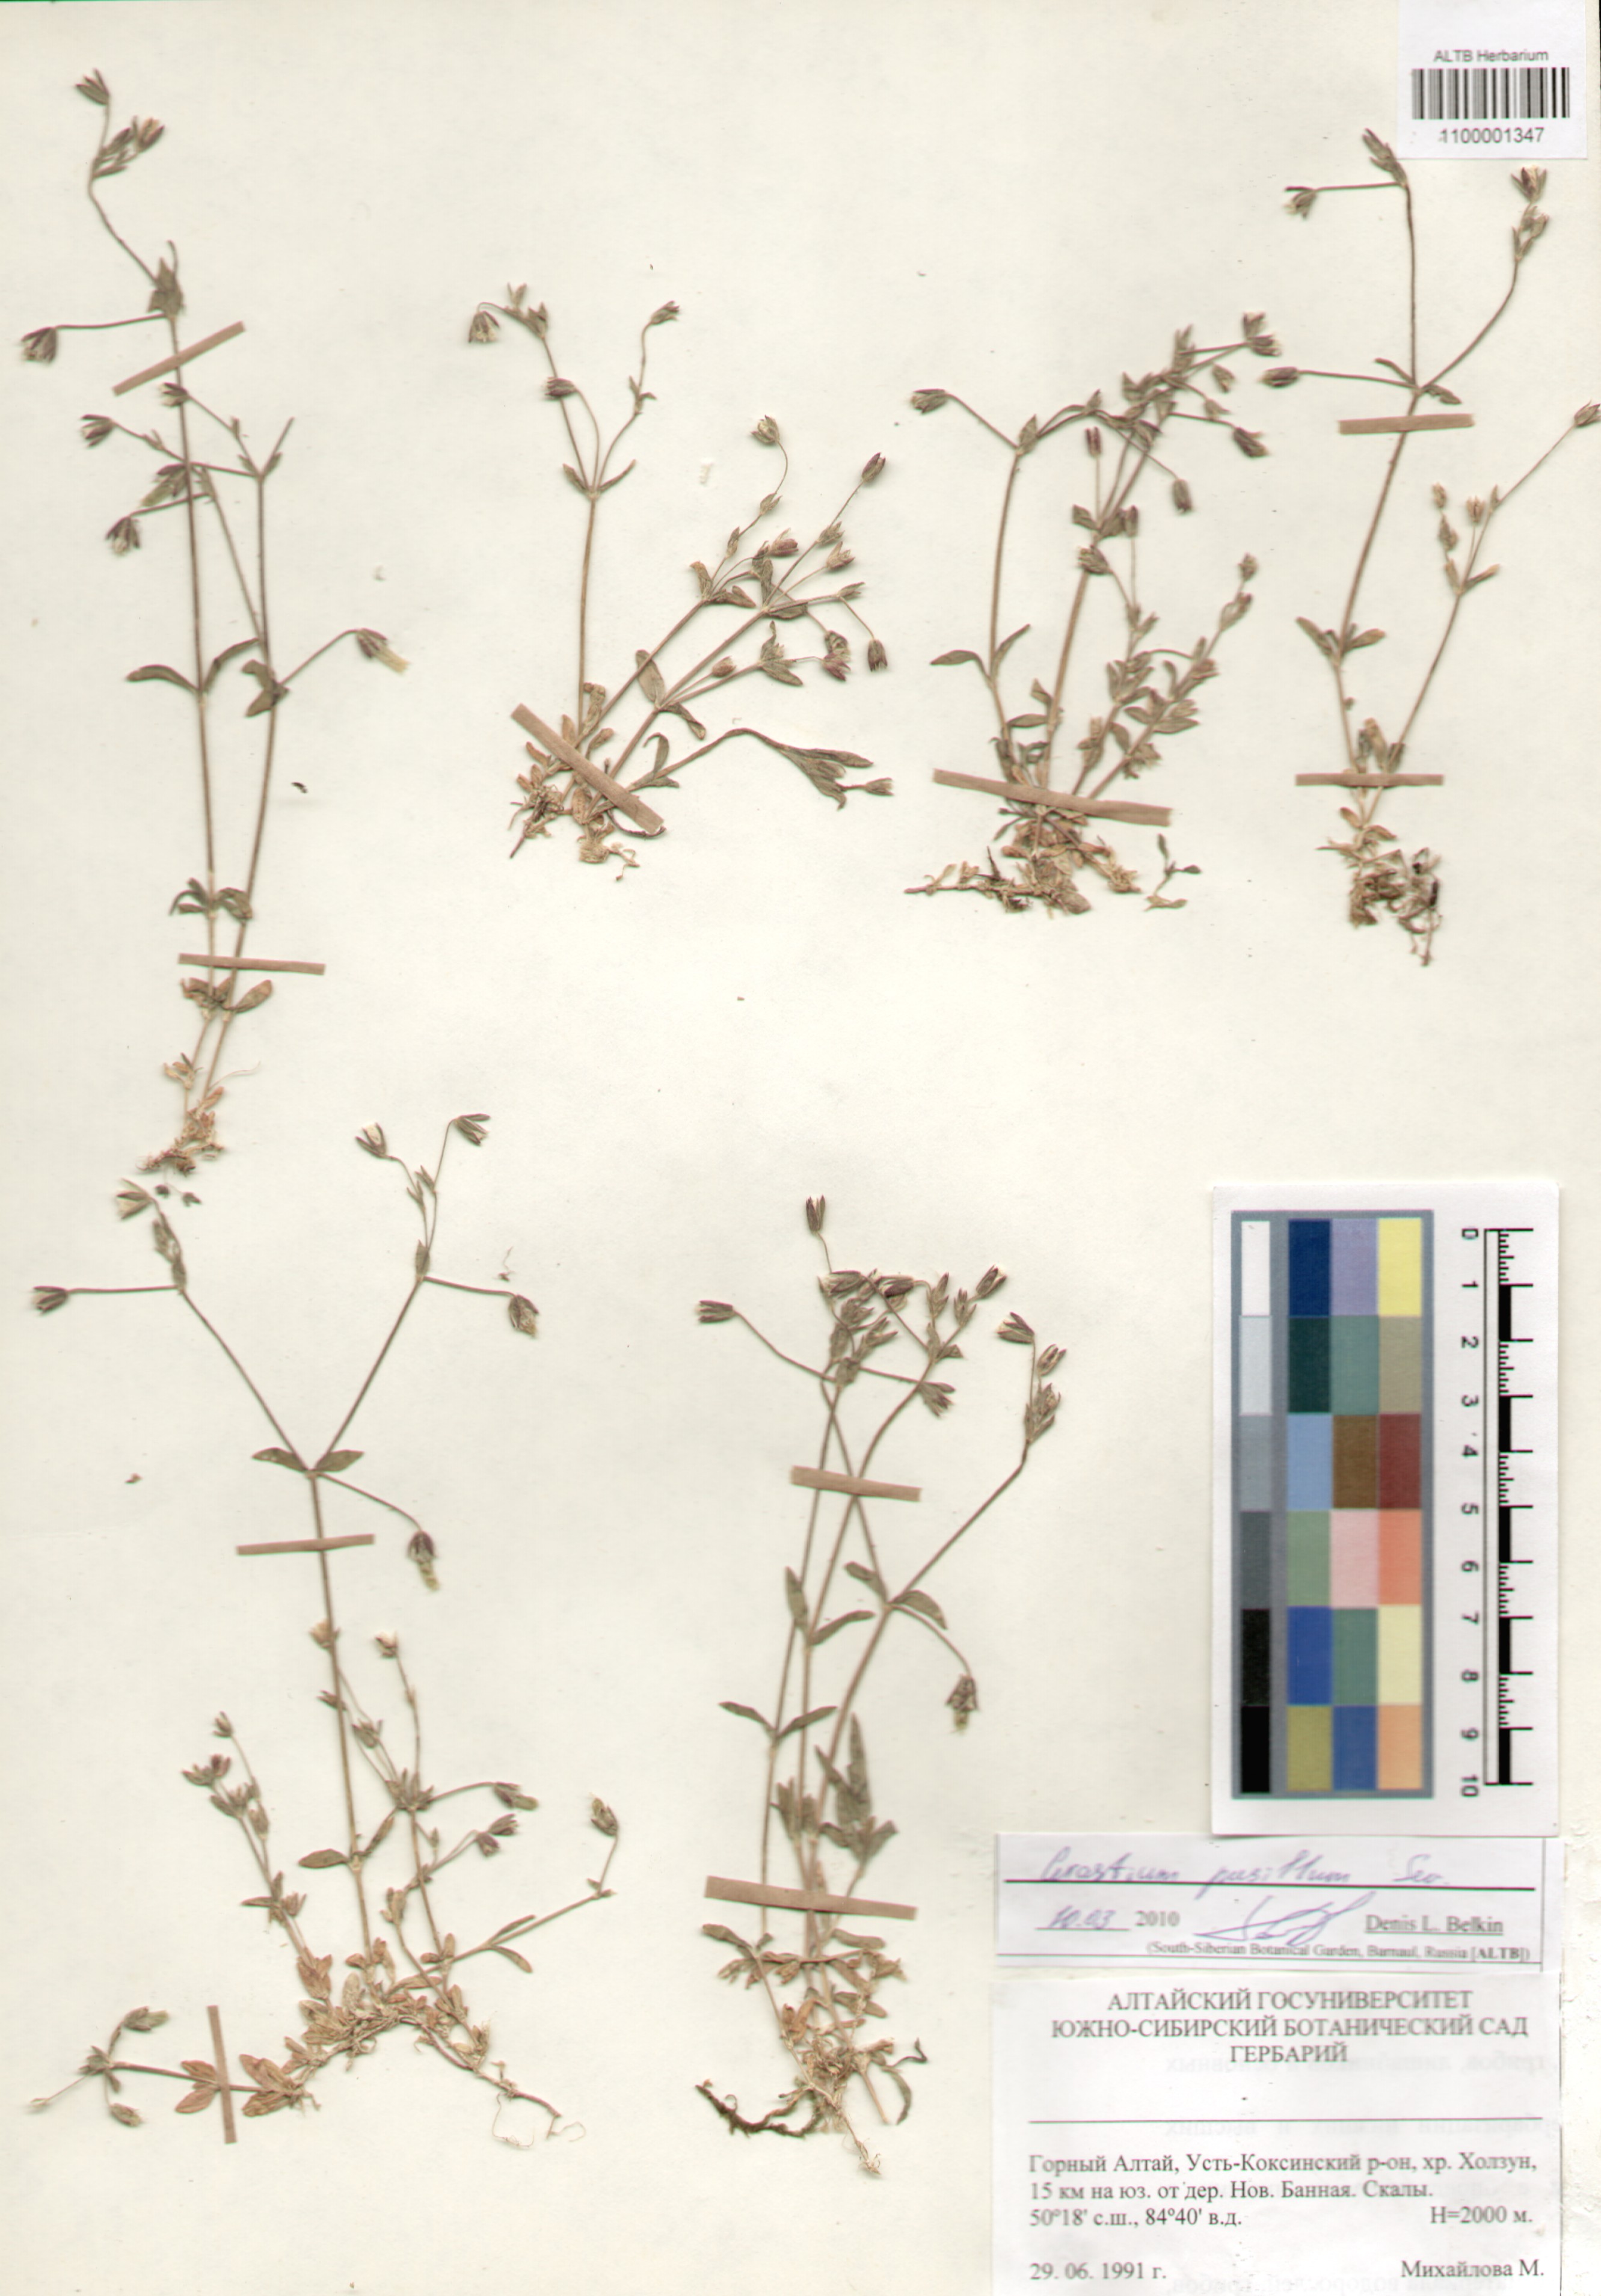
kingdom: Plantae
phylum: Tracheophyta
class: Magnoliopsida
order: Caryophyllales
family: Caryophyllaceae
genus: Cerastium
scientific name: Cerastium pusillum
